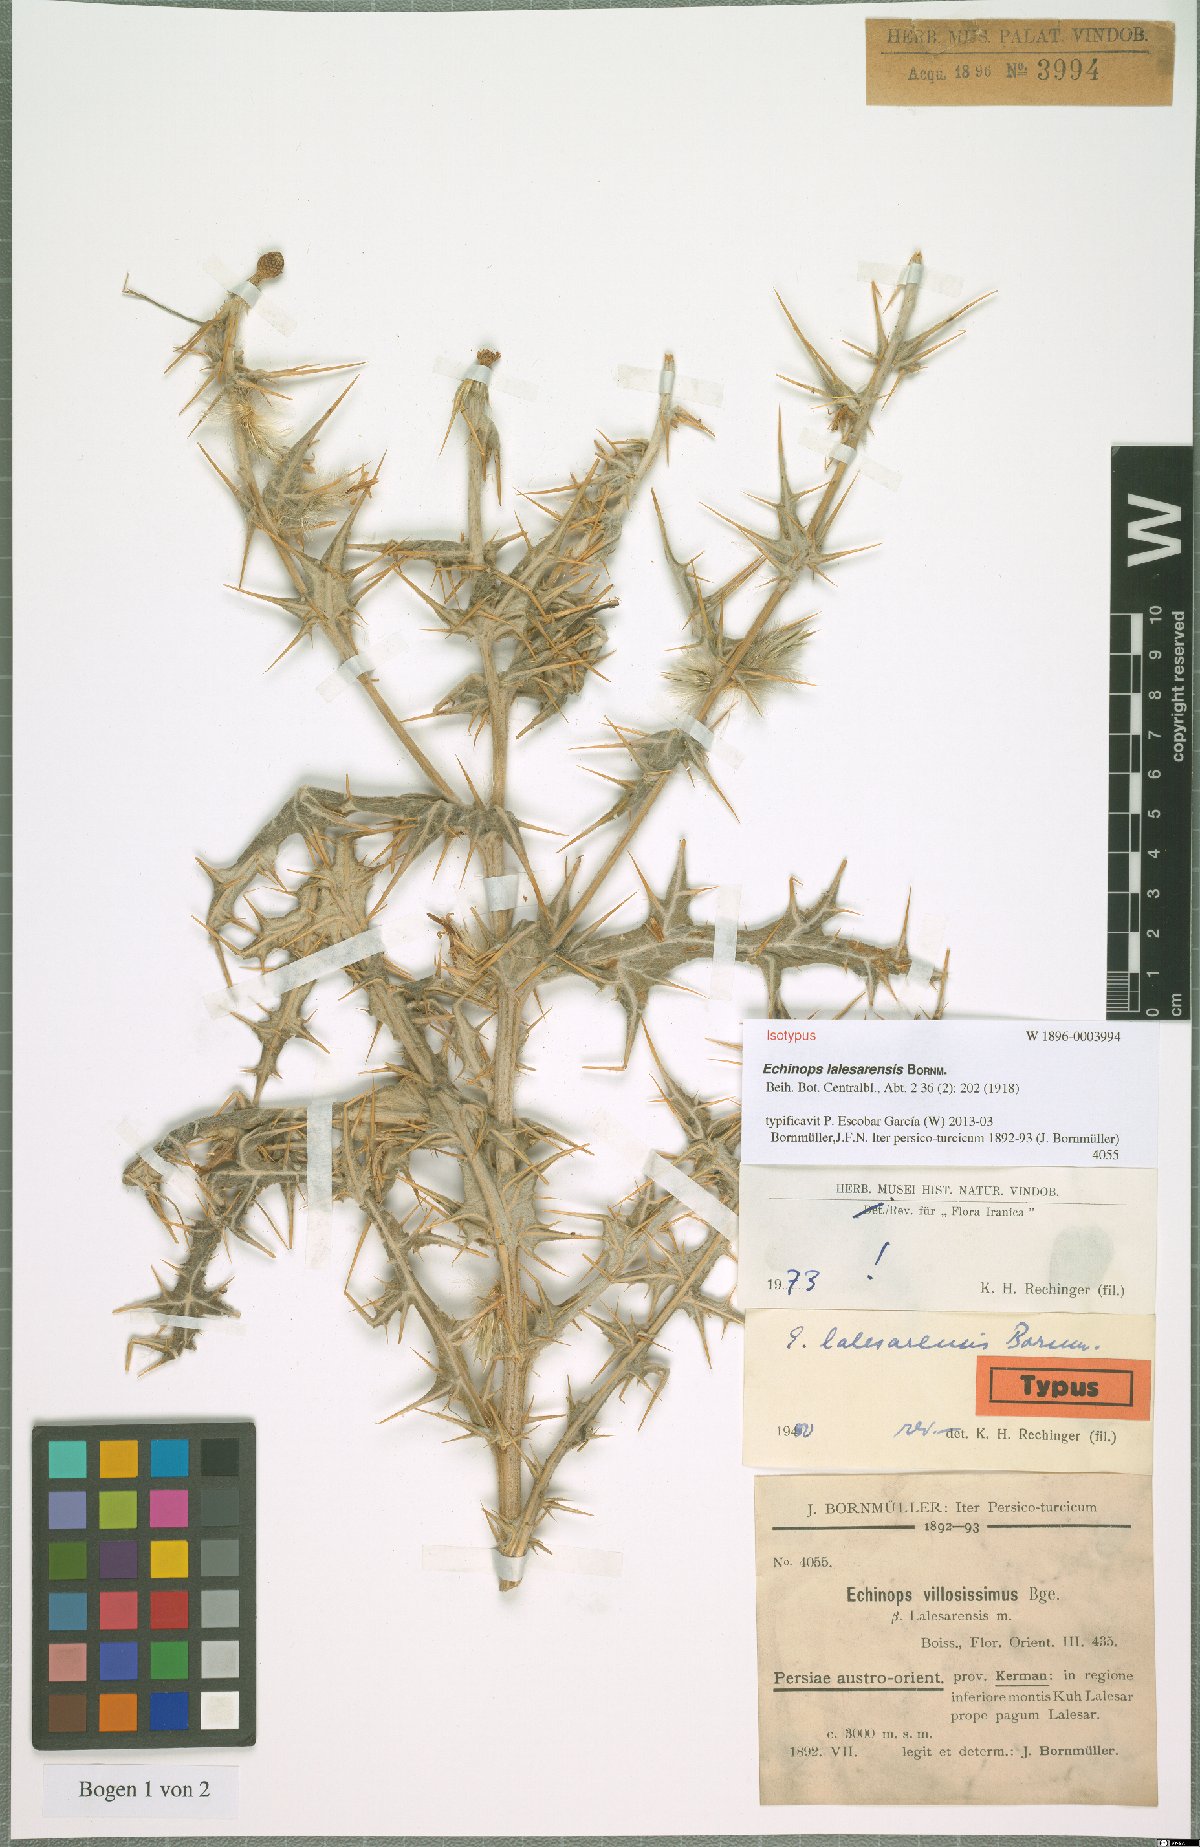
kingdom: Plantae
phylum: Tracheophyta
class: Magnoliopsida
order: Asterales
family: Asteraceae
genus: Echinops
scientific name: Echinops lalesarensis
